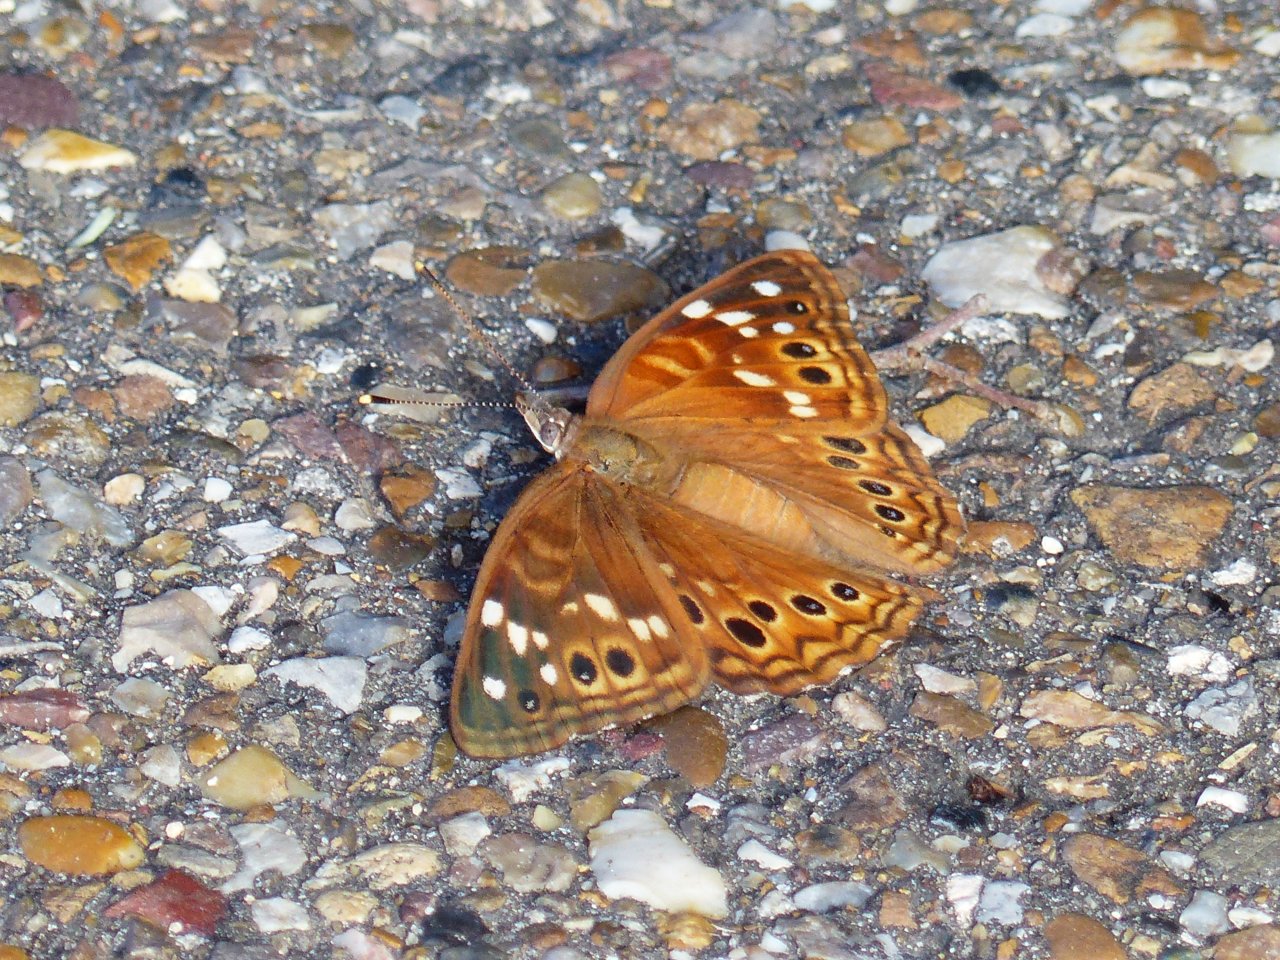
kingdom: Animalia
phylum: Arthropoda
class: Insecta
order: Lepidoptera
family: Nymphalidae
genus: Asterocampa
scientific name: Asterocampa leilia
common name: Empress Leilia
